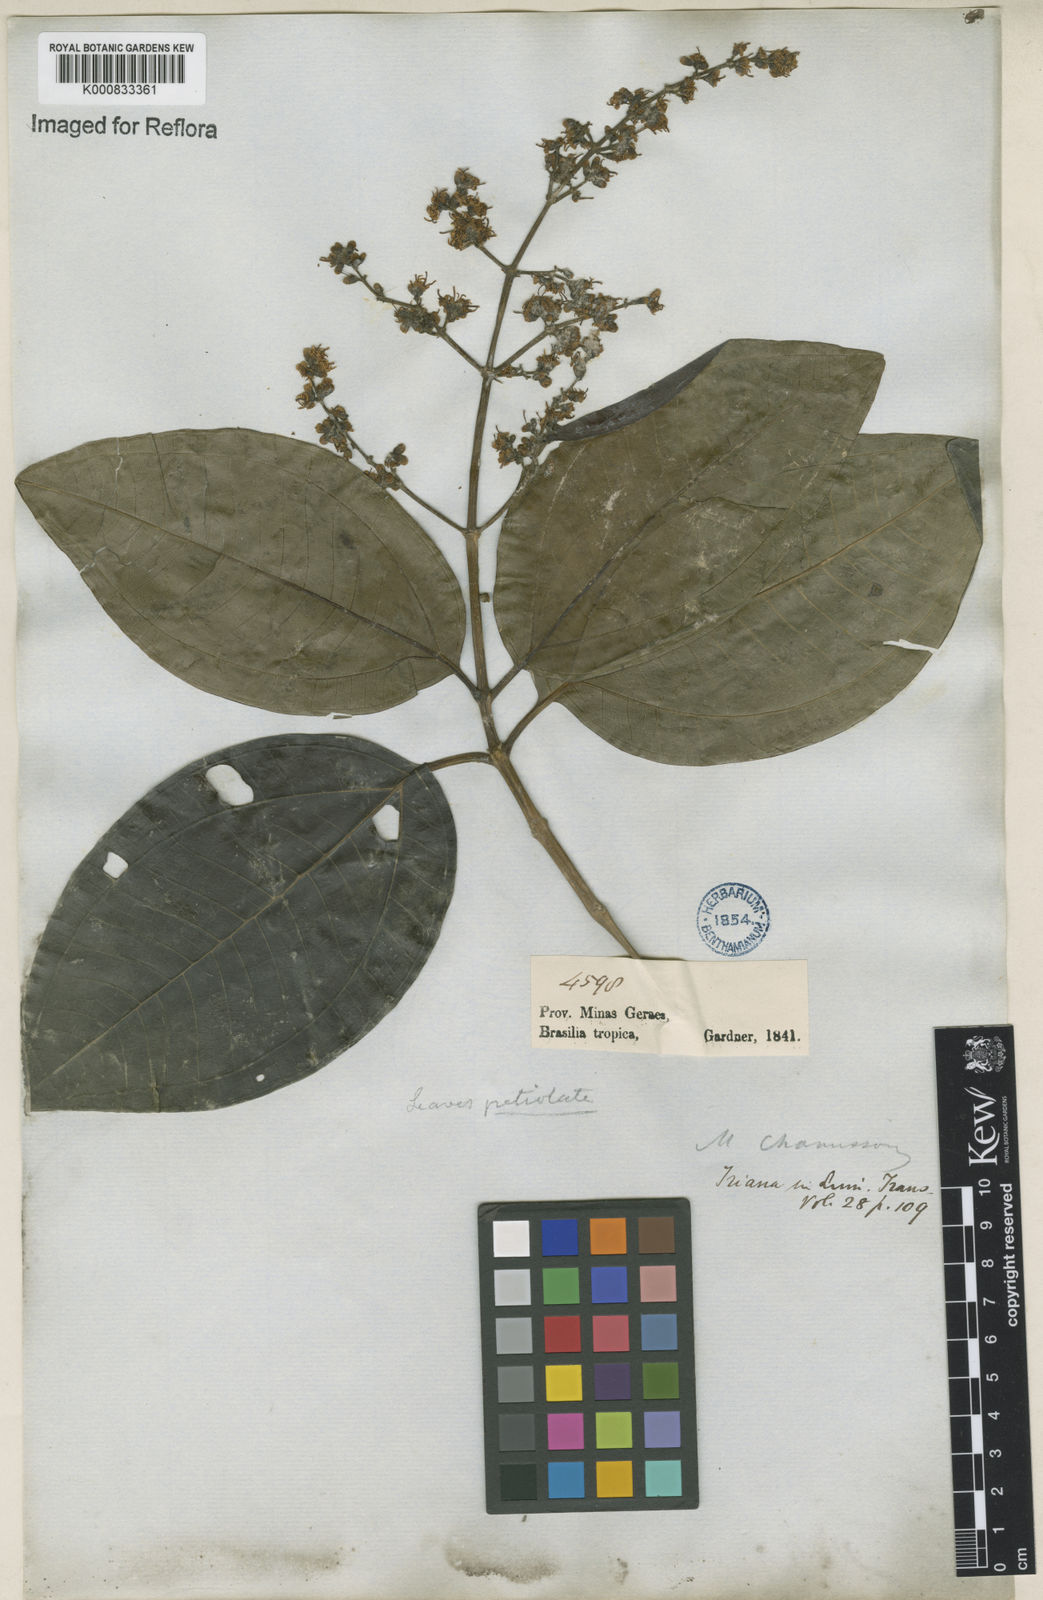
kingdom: Plantae
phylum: Tracheophyta
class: Magnoliopsida
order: Myrtales
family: Melastomataceae
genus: Miconia
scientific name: Miconia chamissois
